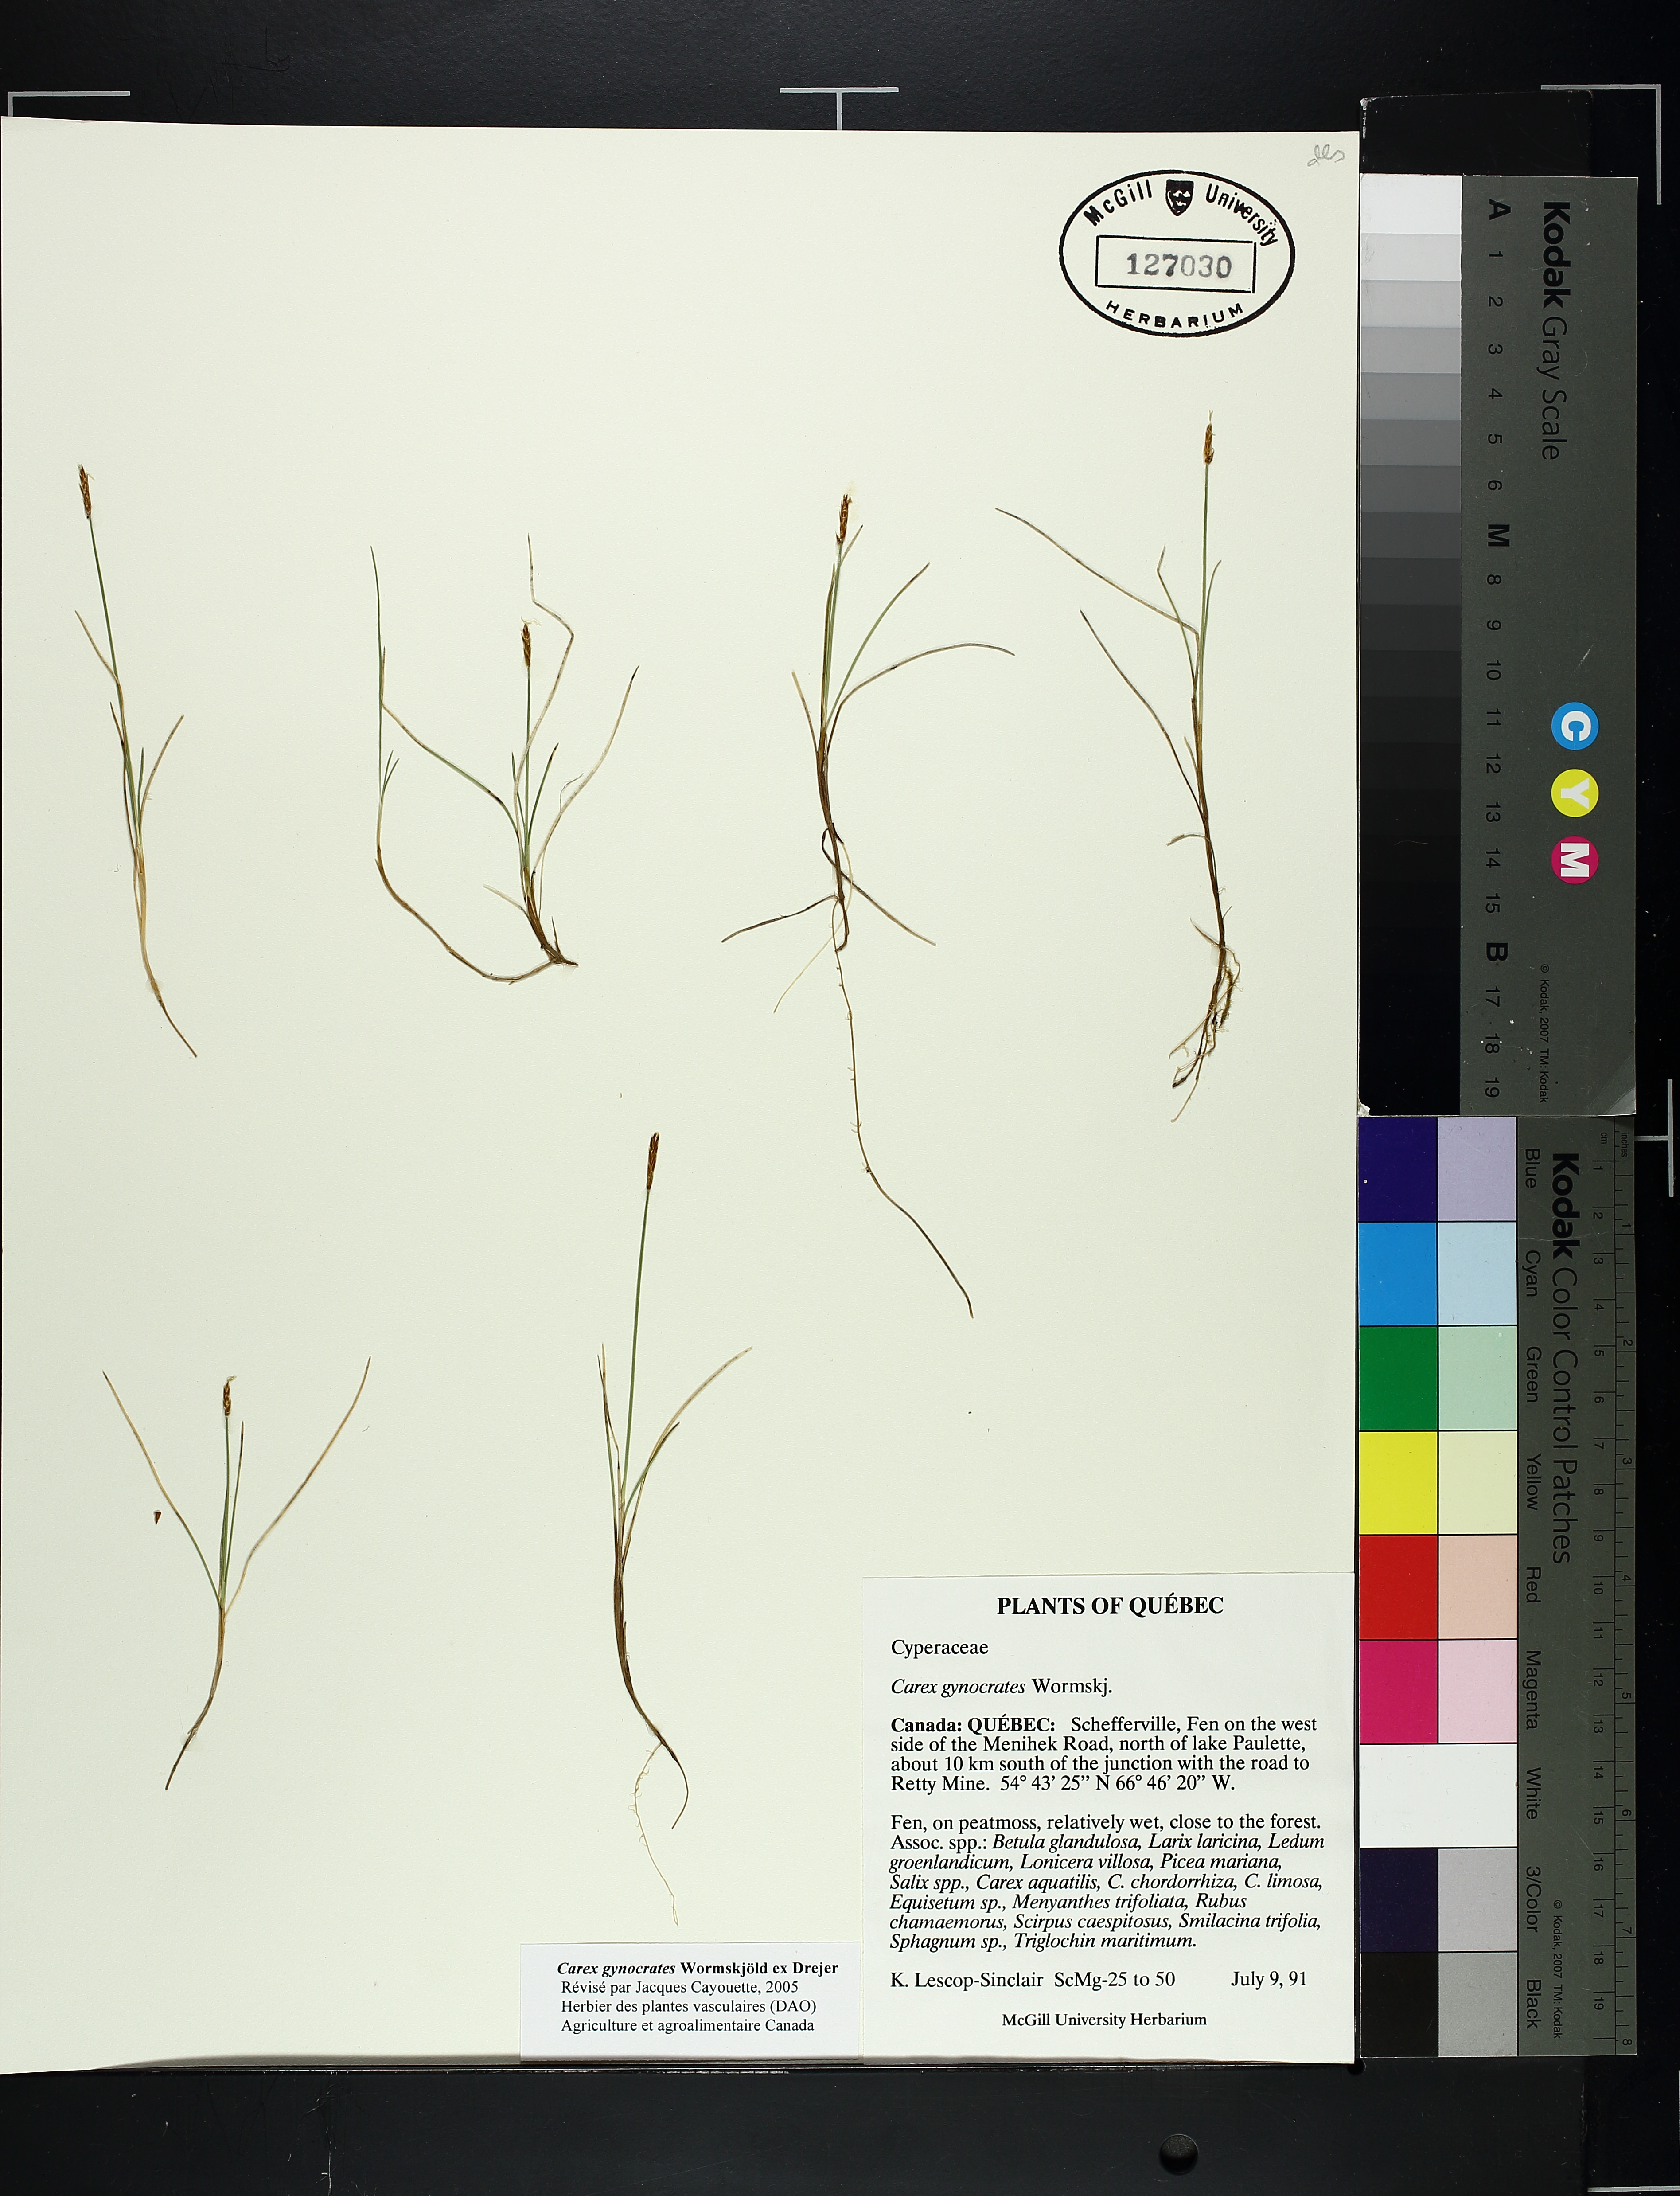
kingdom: Plantae
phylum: Tracheophyta
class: Liliopsida
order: Poales
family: Cyperaceae
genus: Carex
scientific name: Carex gynocrates
